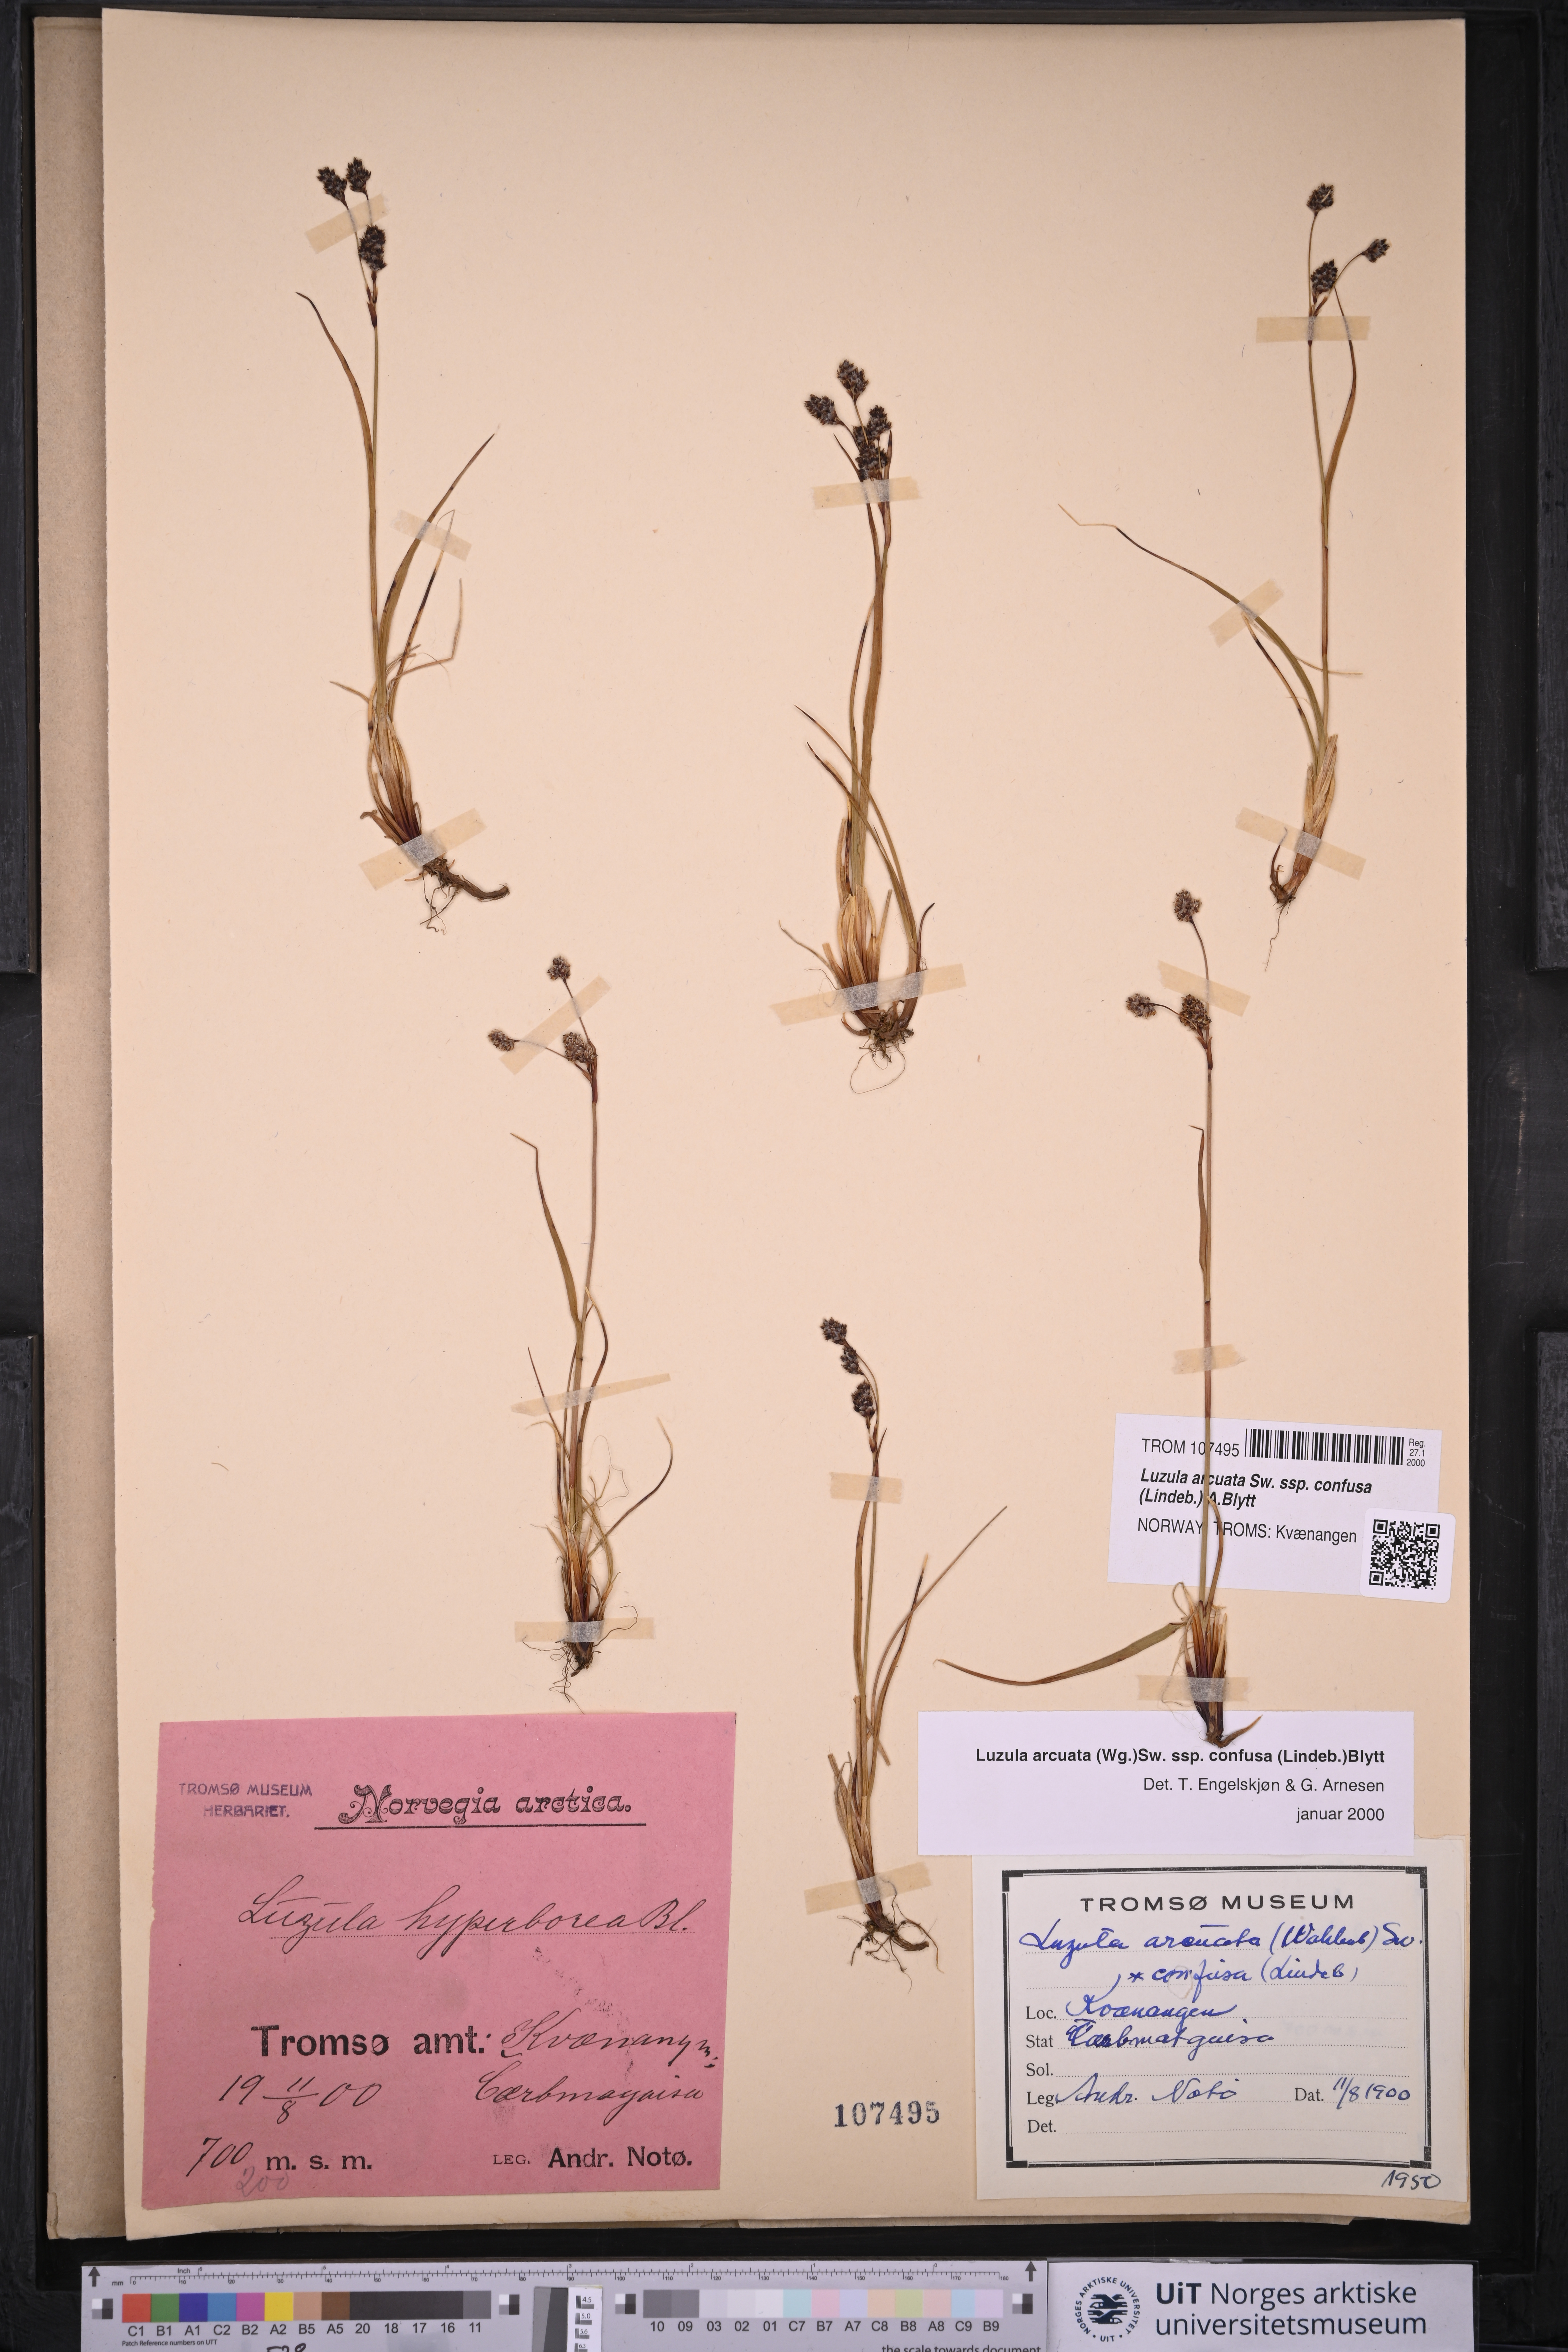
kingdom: Plantae
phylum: Tracheophyta
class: Liliopsida
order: Poales
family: Juncaceae
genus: Luzula
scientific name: Luzula confusa
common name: Northern wood rush
